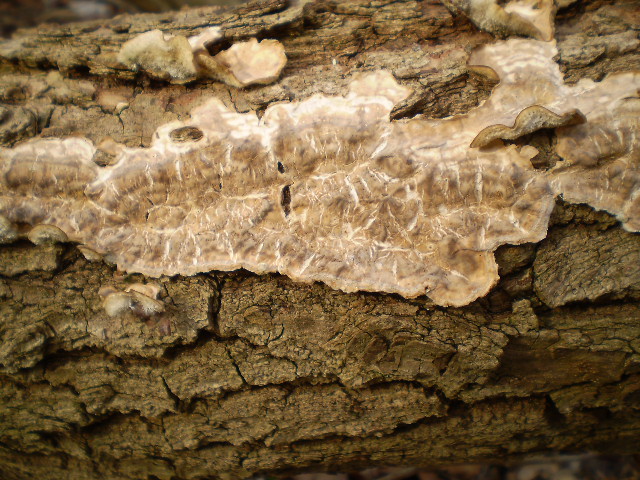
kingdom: Fungi
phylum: Basidiomycota
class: Agaricomycetes
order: Agaricales
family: Physalacriaceae
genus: Cylindrobasidium
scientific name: Cylindrobasidium evolvens
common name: sprækkehinde
